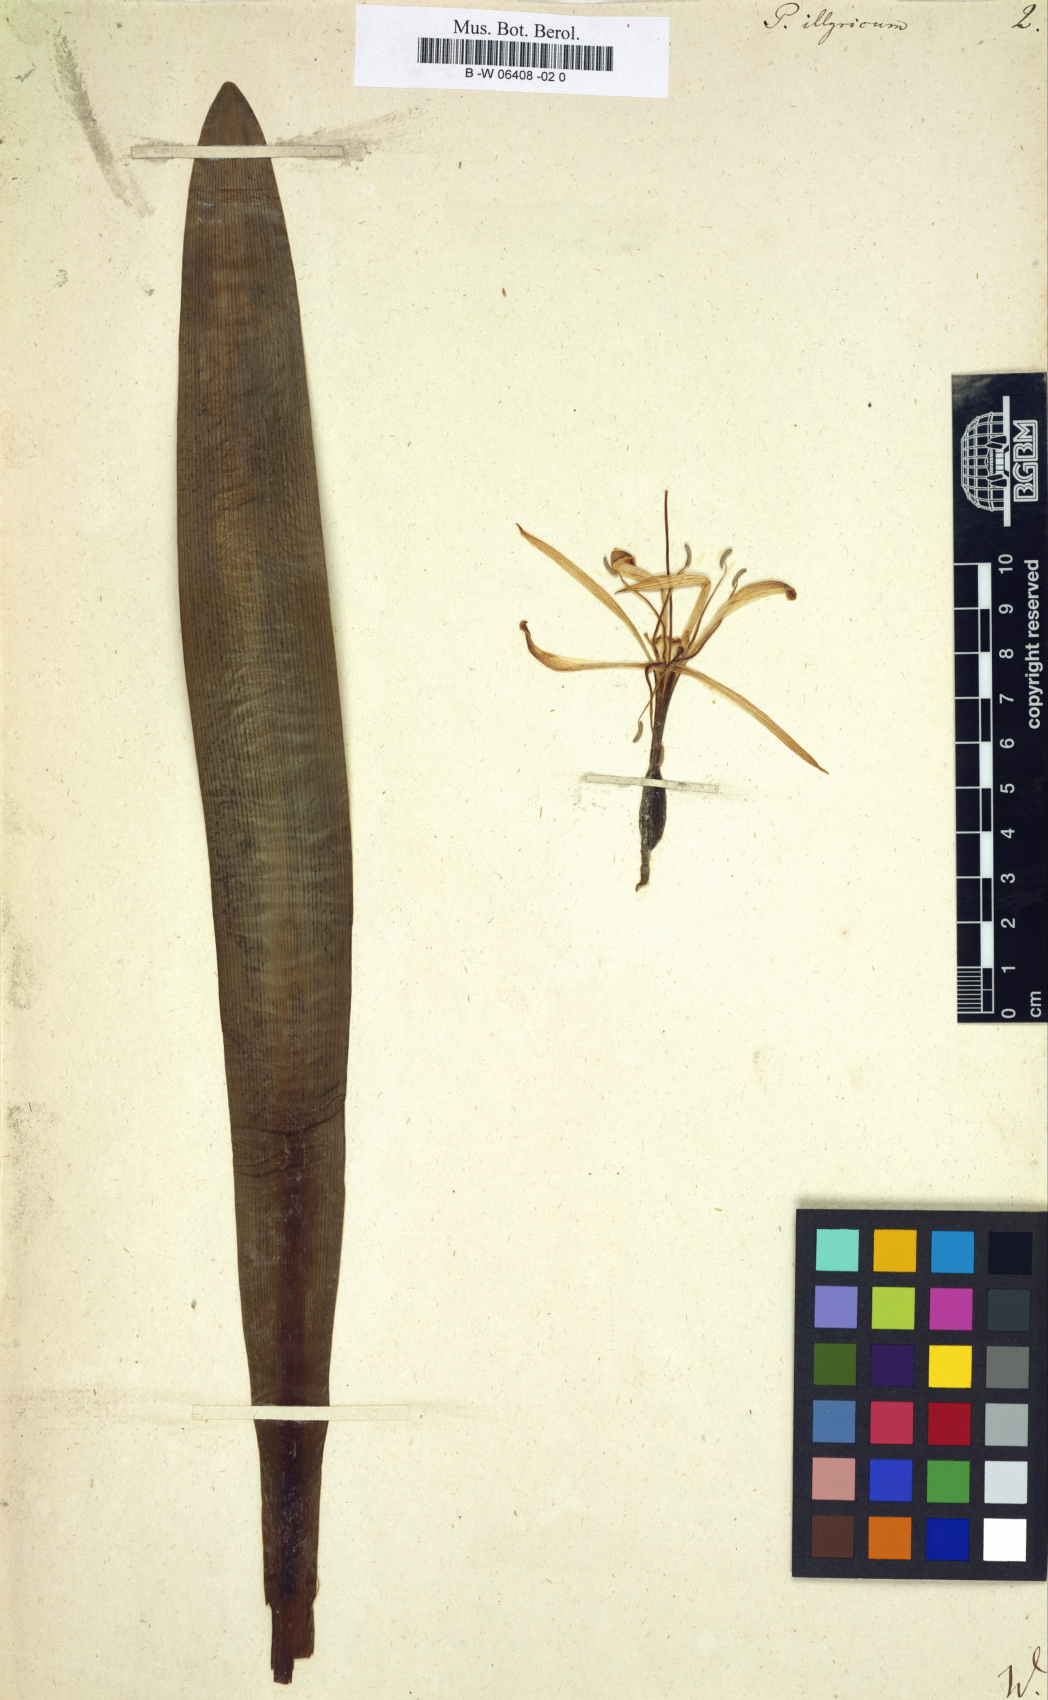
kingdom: Plantae
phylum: Tracheophyta
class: Liliopsida
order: Asparagales
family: Amaryllidaceae
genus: Pancratium
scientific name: Pancratium illyricum
